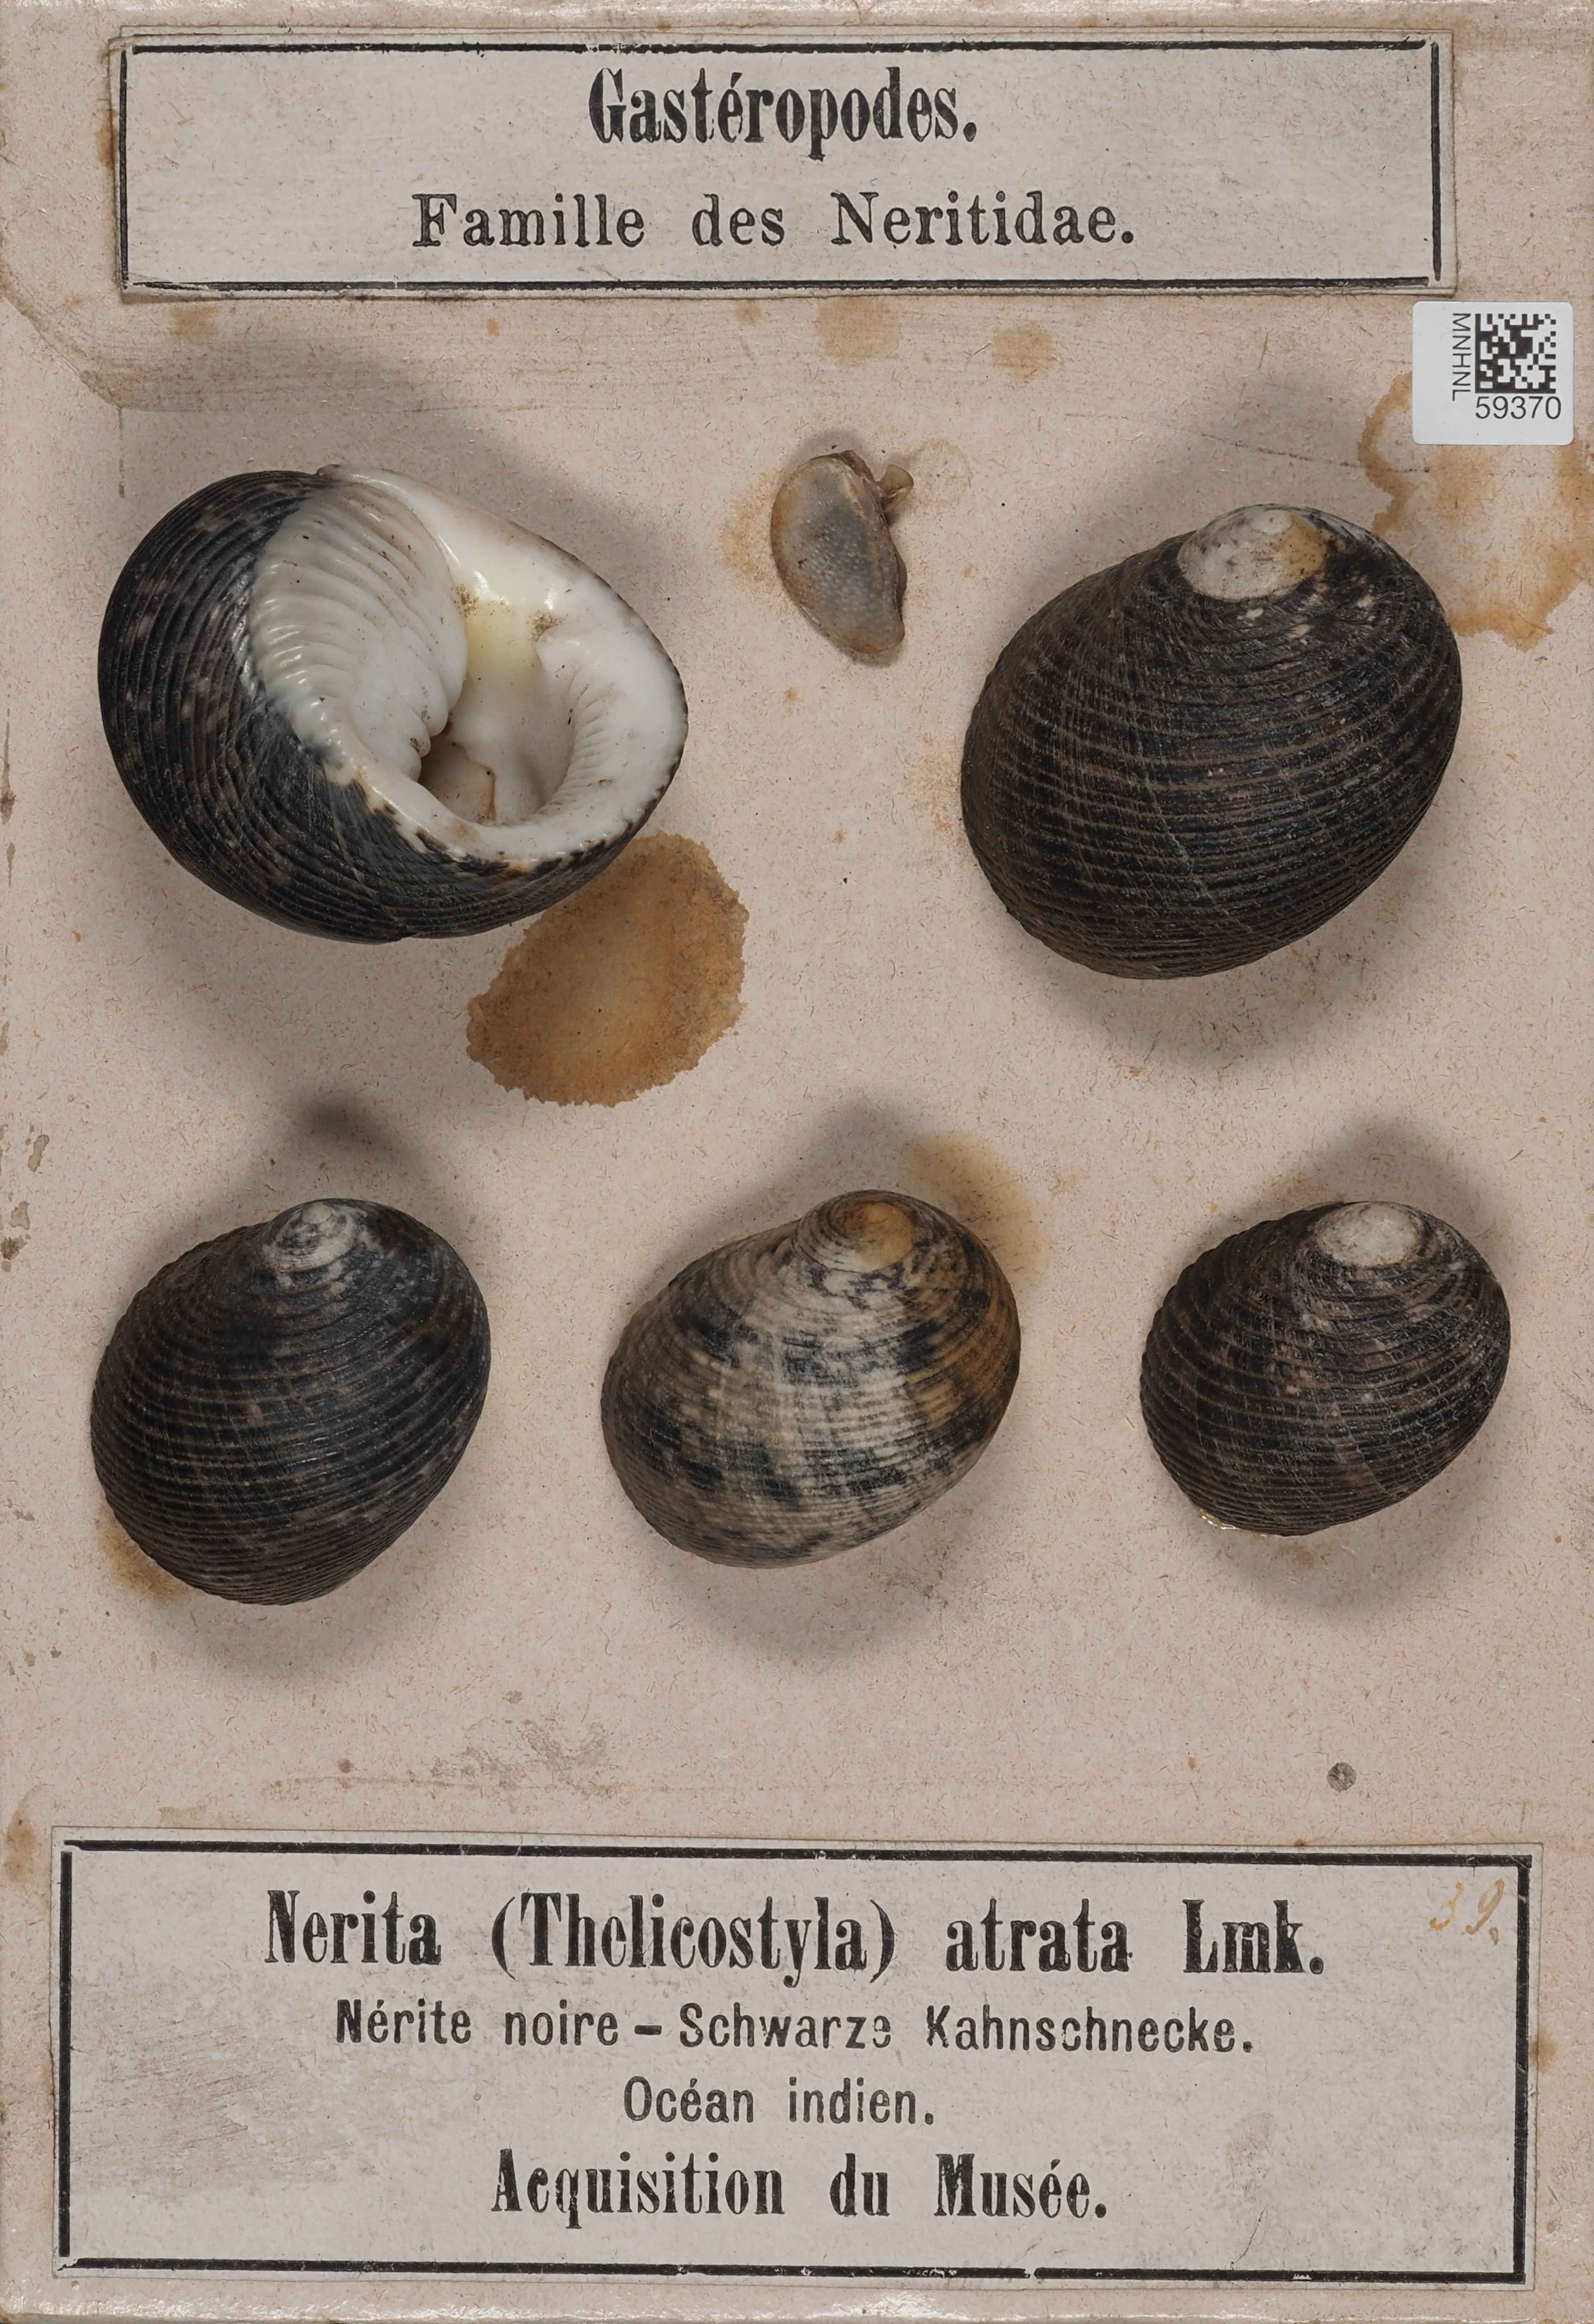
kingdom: Animalia
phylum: Mollusca
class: Gastropoda
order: Cycloneritida
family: Neritidae
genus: Nerita
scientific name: Nerita
